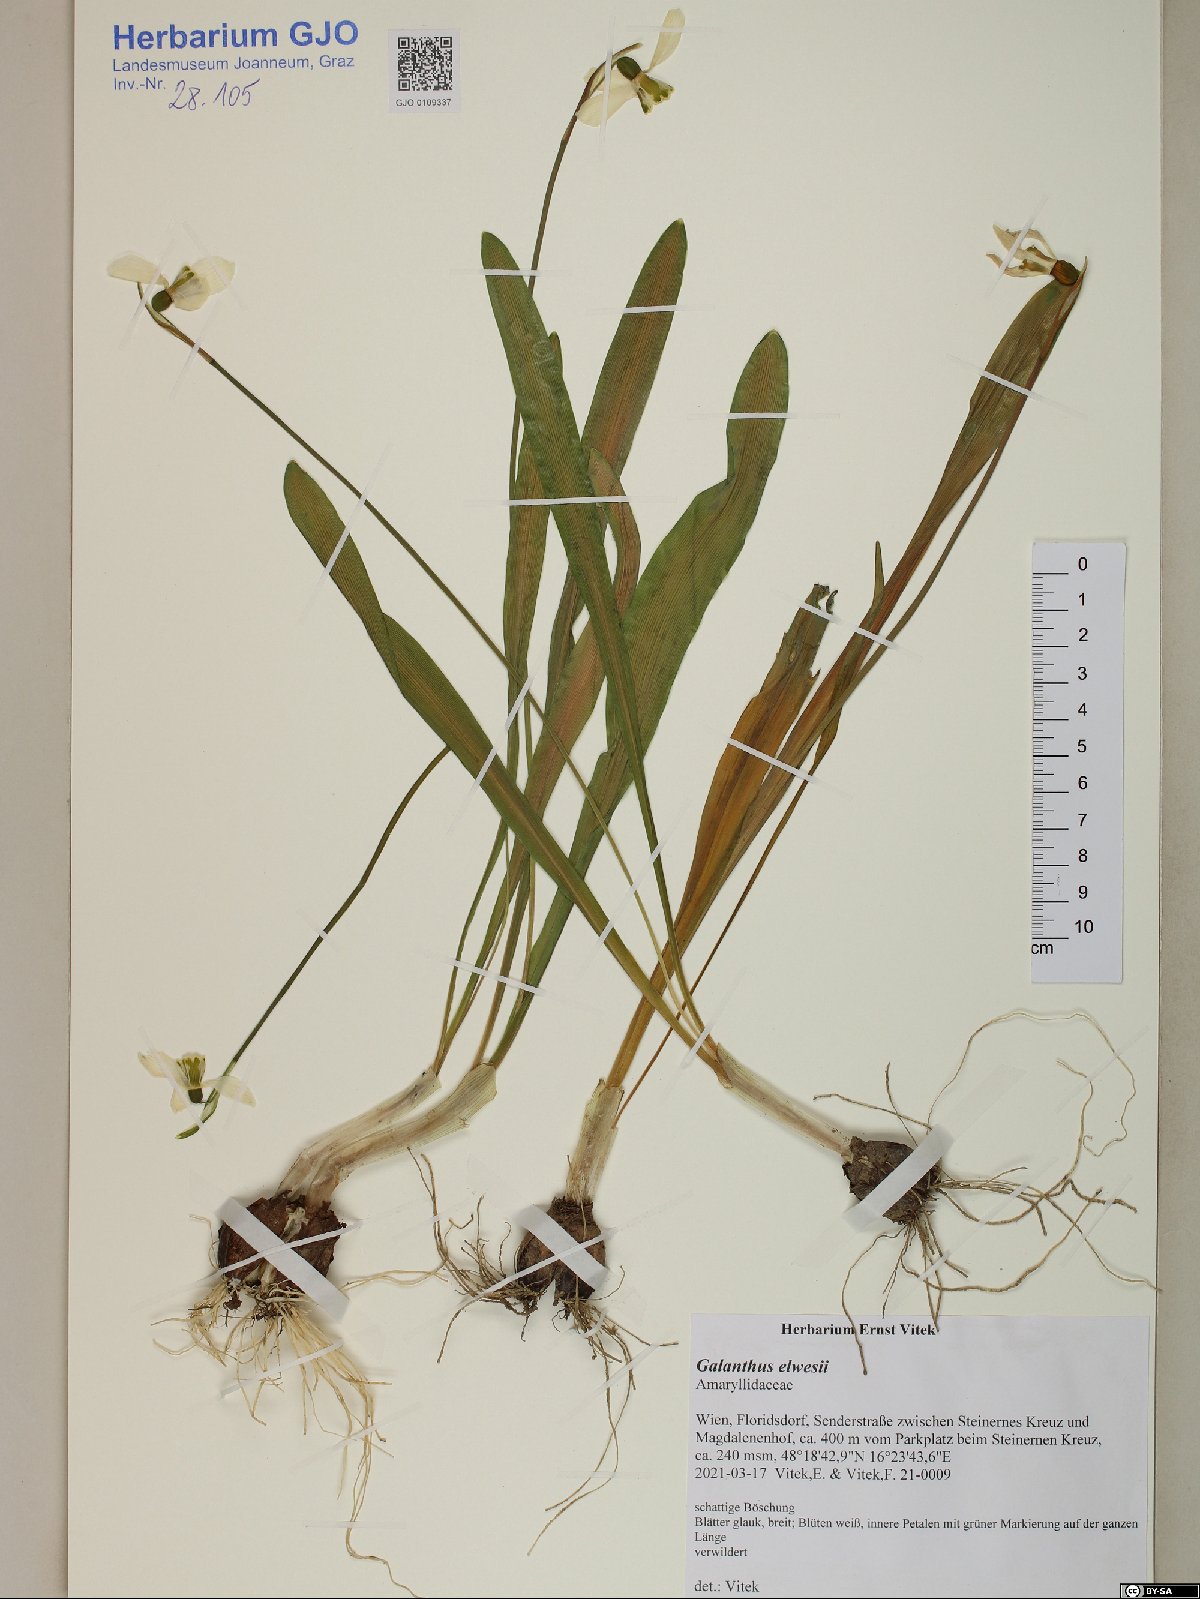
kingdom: Plantae
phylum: Tracheophyta
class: Liliopsida
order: Asparagales
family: Amaryllidaceae
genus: Galanthus
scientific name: Galanthus elwesii
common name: Greater snowdrop
